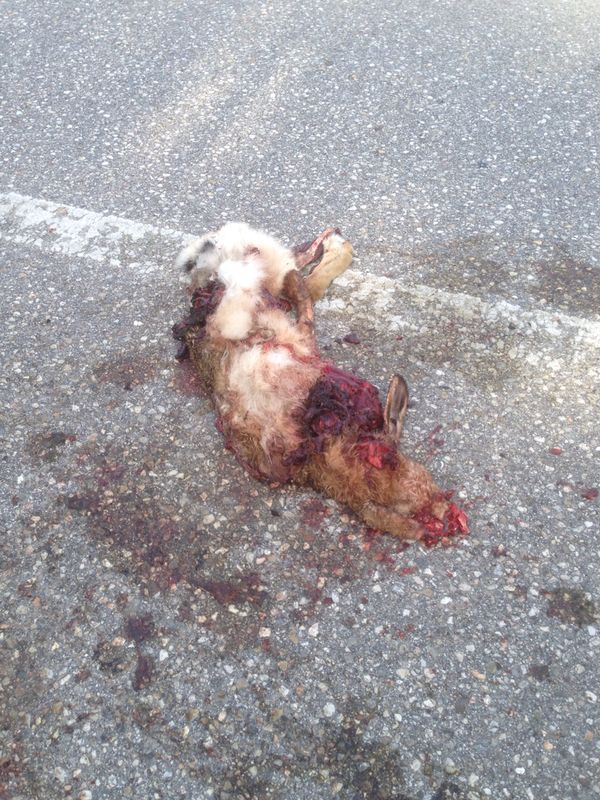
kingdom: Animalia
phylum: Chordata
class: Mammalia
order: Lagomorpha
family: Leporidae
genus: Lepus
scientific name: Lepus europaeus
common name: European hare
